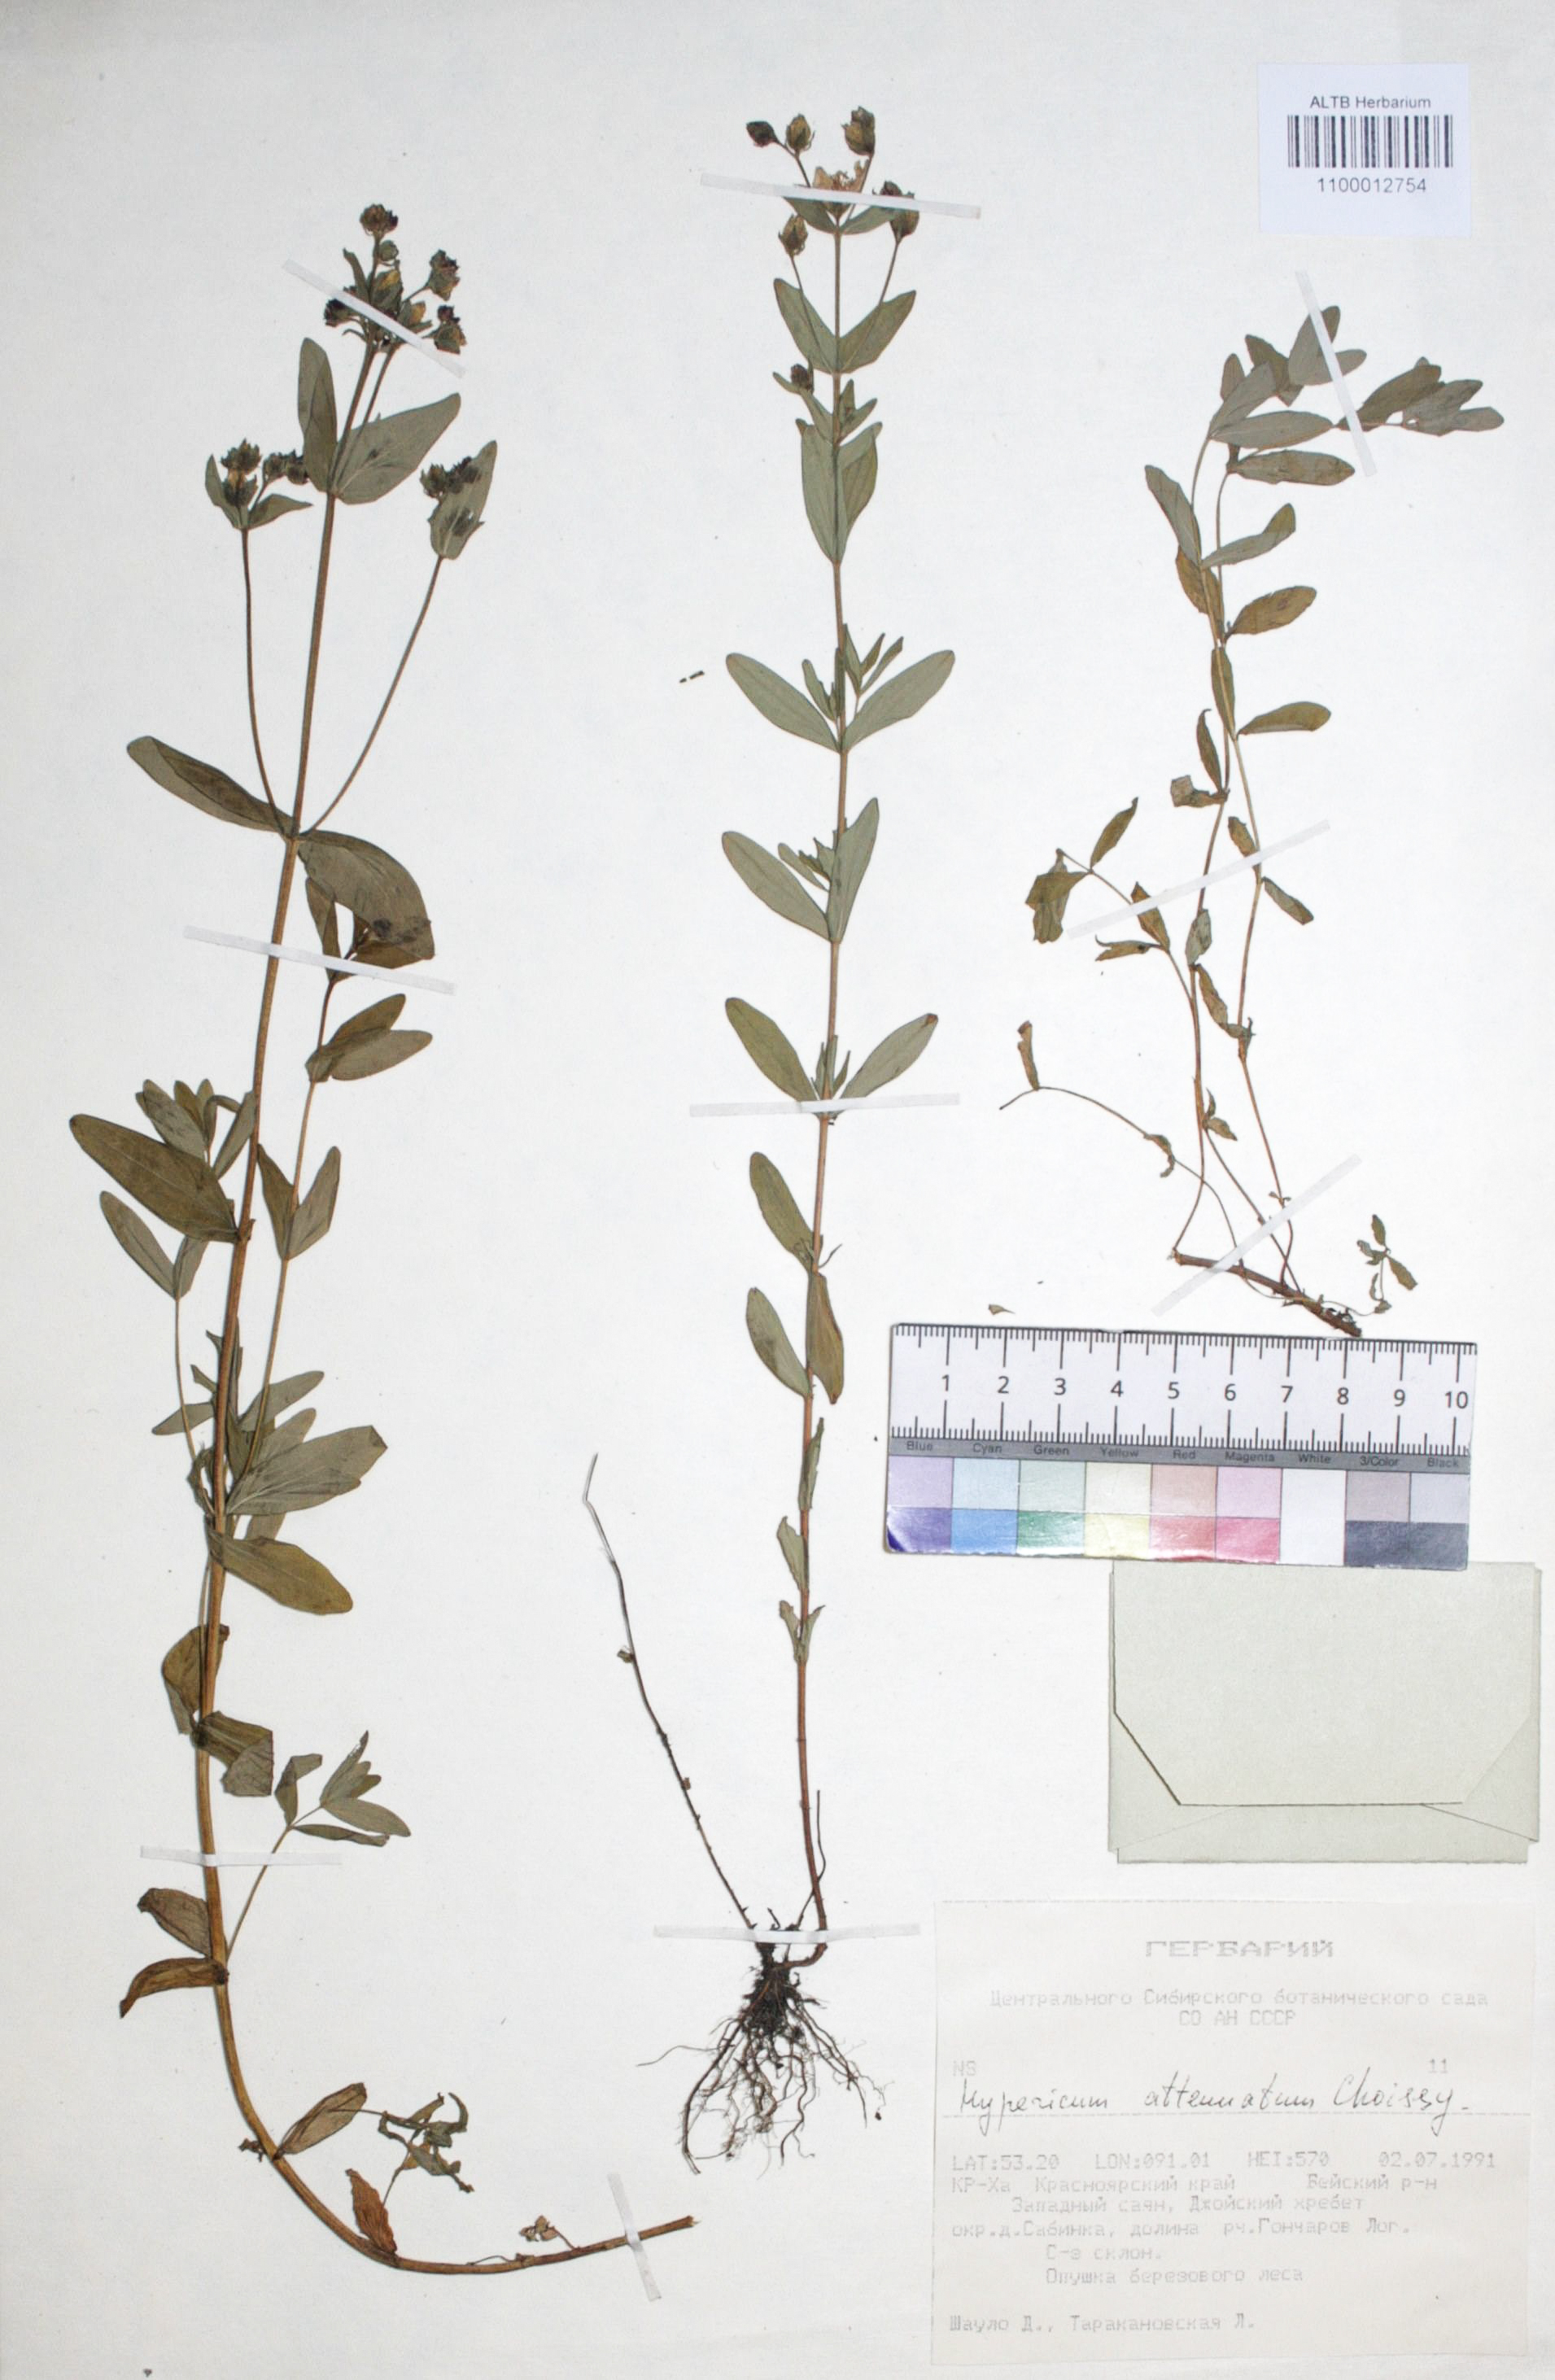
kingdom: Plantae
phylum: Tracheophyta
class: Magnoliopsida
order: Malpighiales
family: Hypericaceae
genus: Hypericum
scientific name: Hypericum attenuatum
